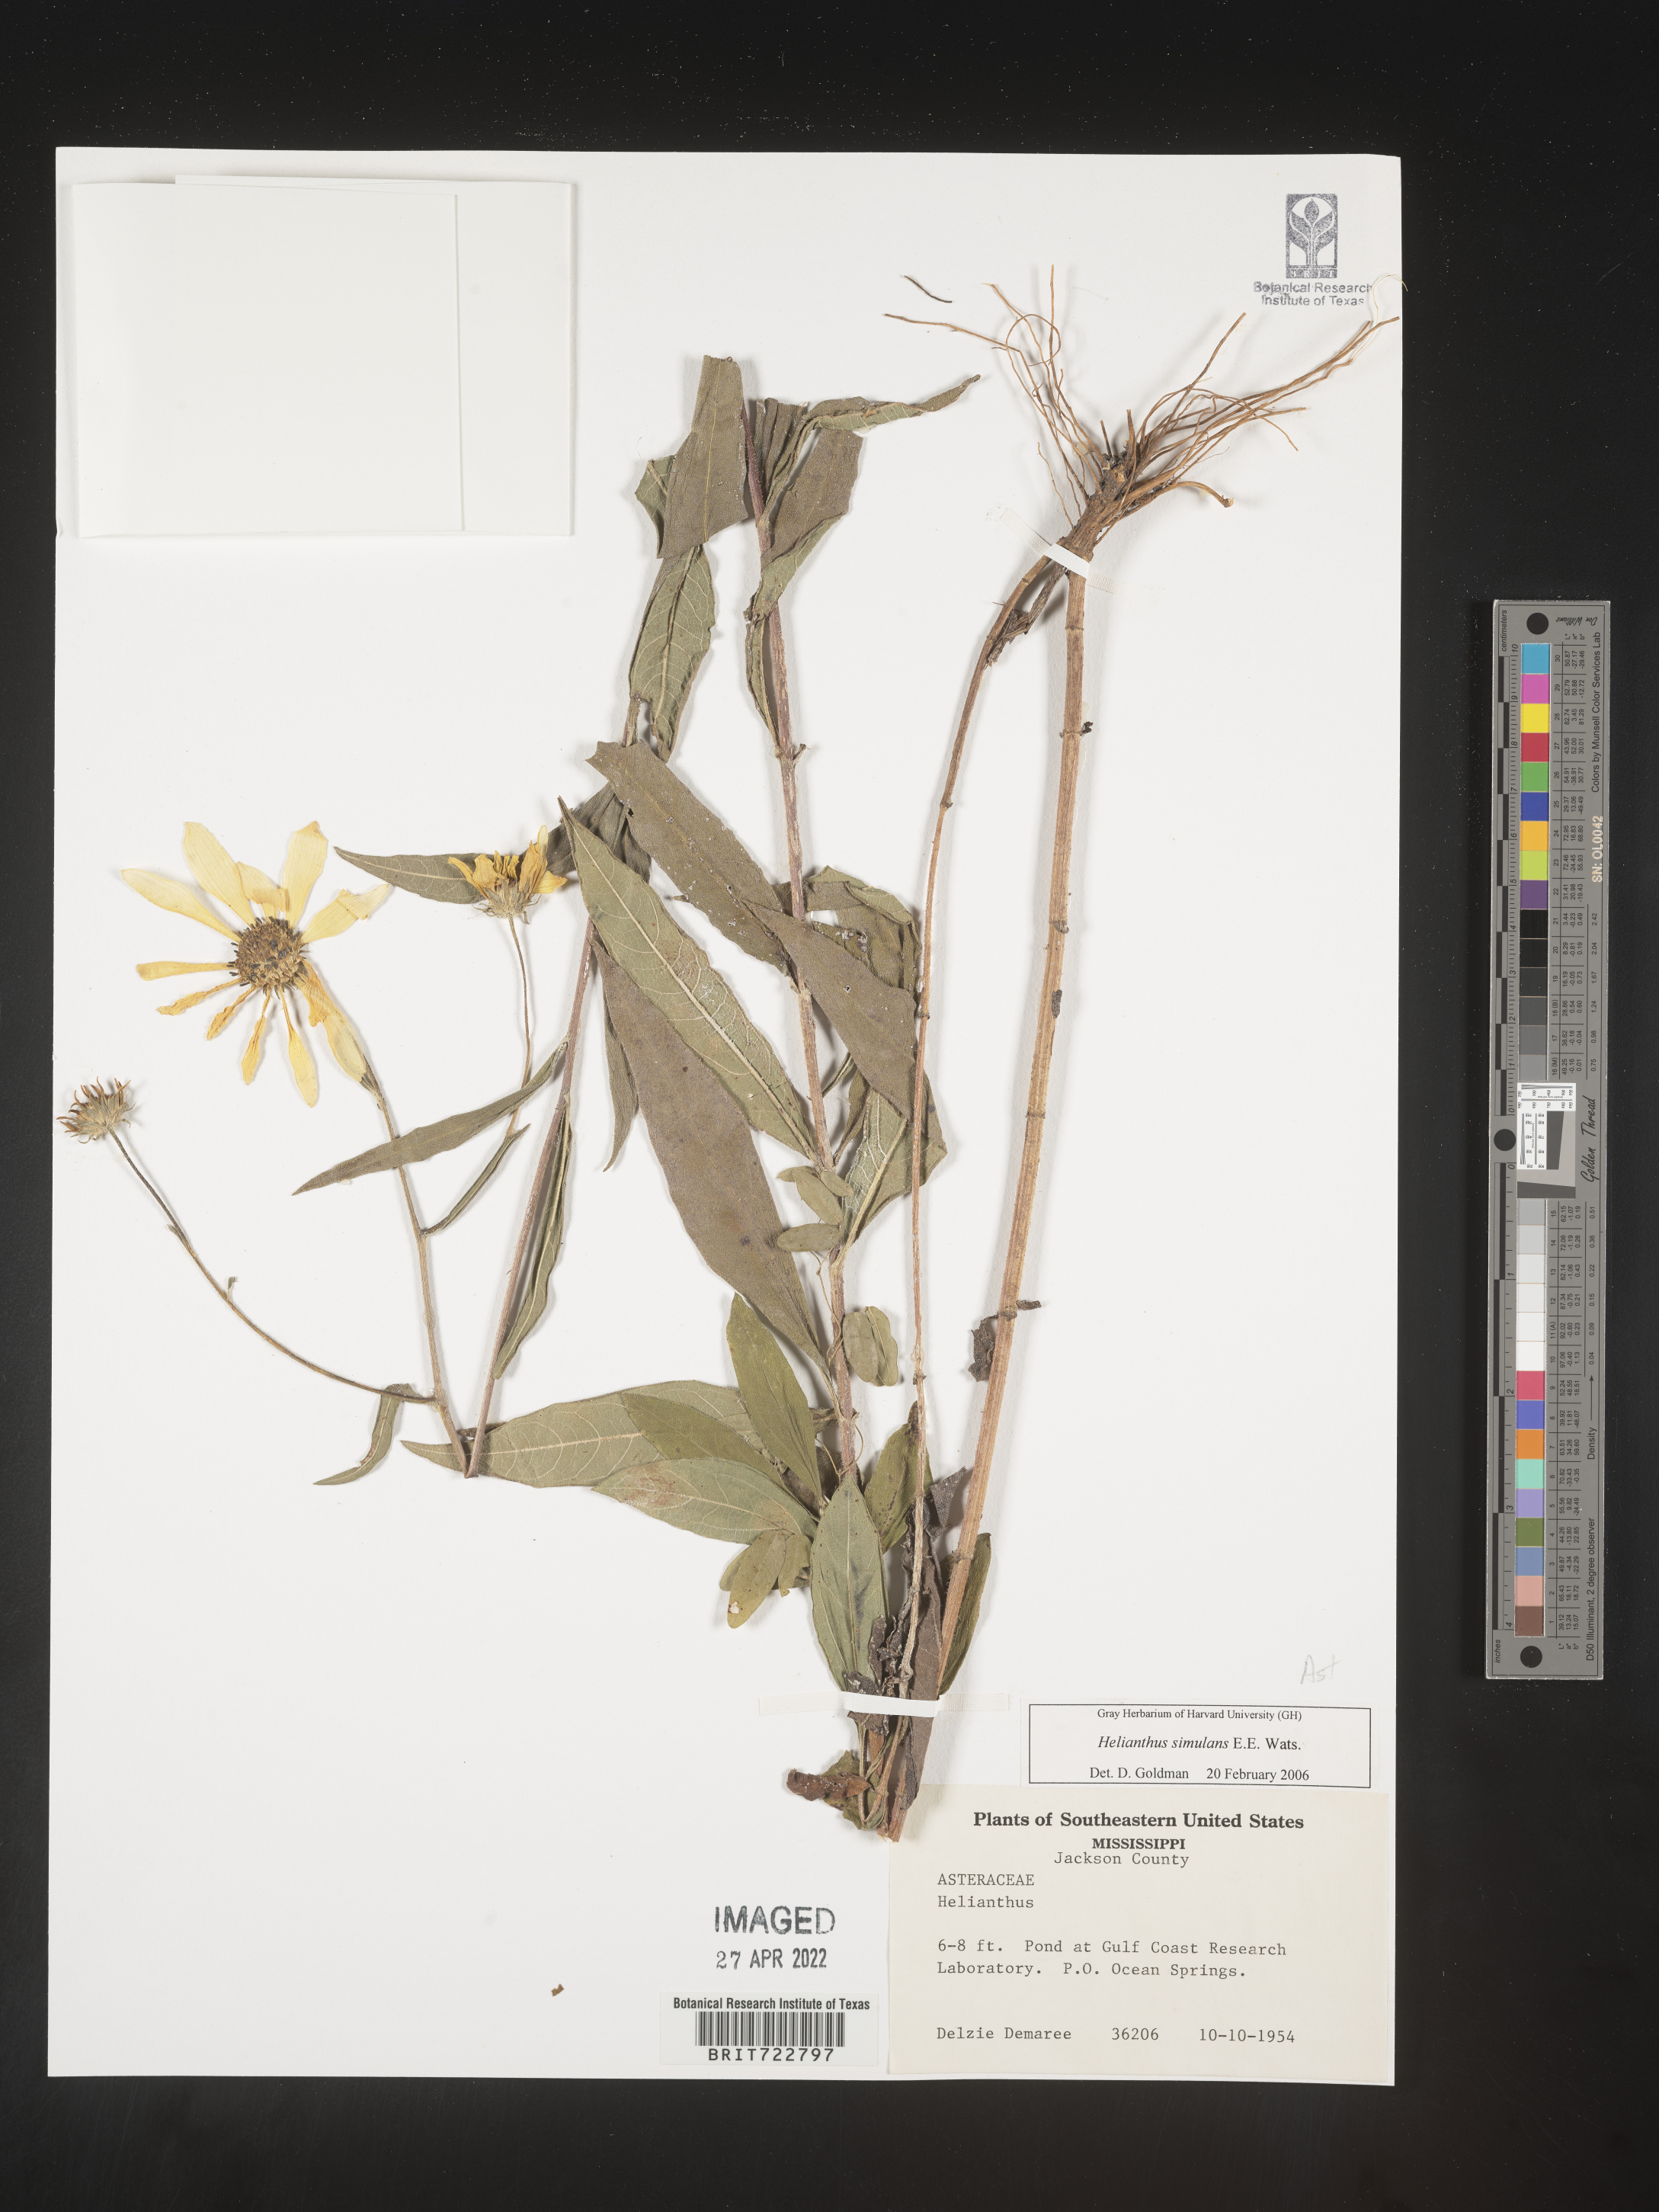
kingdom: Plantae
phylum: Tracheophyta
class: Magnoliopsida
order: Asterales
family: Asteraceae
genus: Helianthus
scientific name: Helianthus simulans
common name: Muck sunflower
